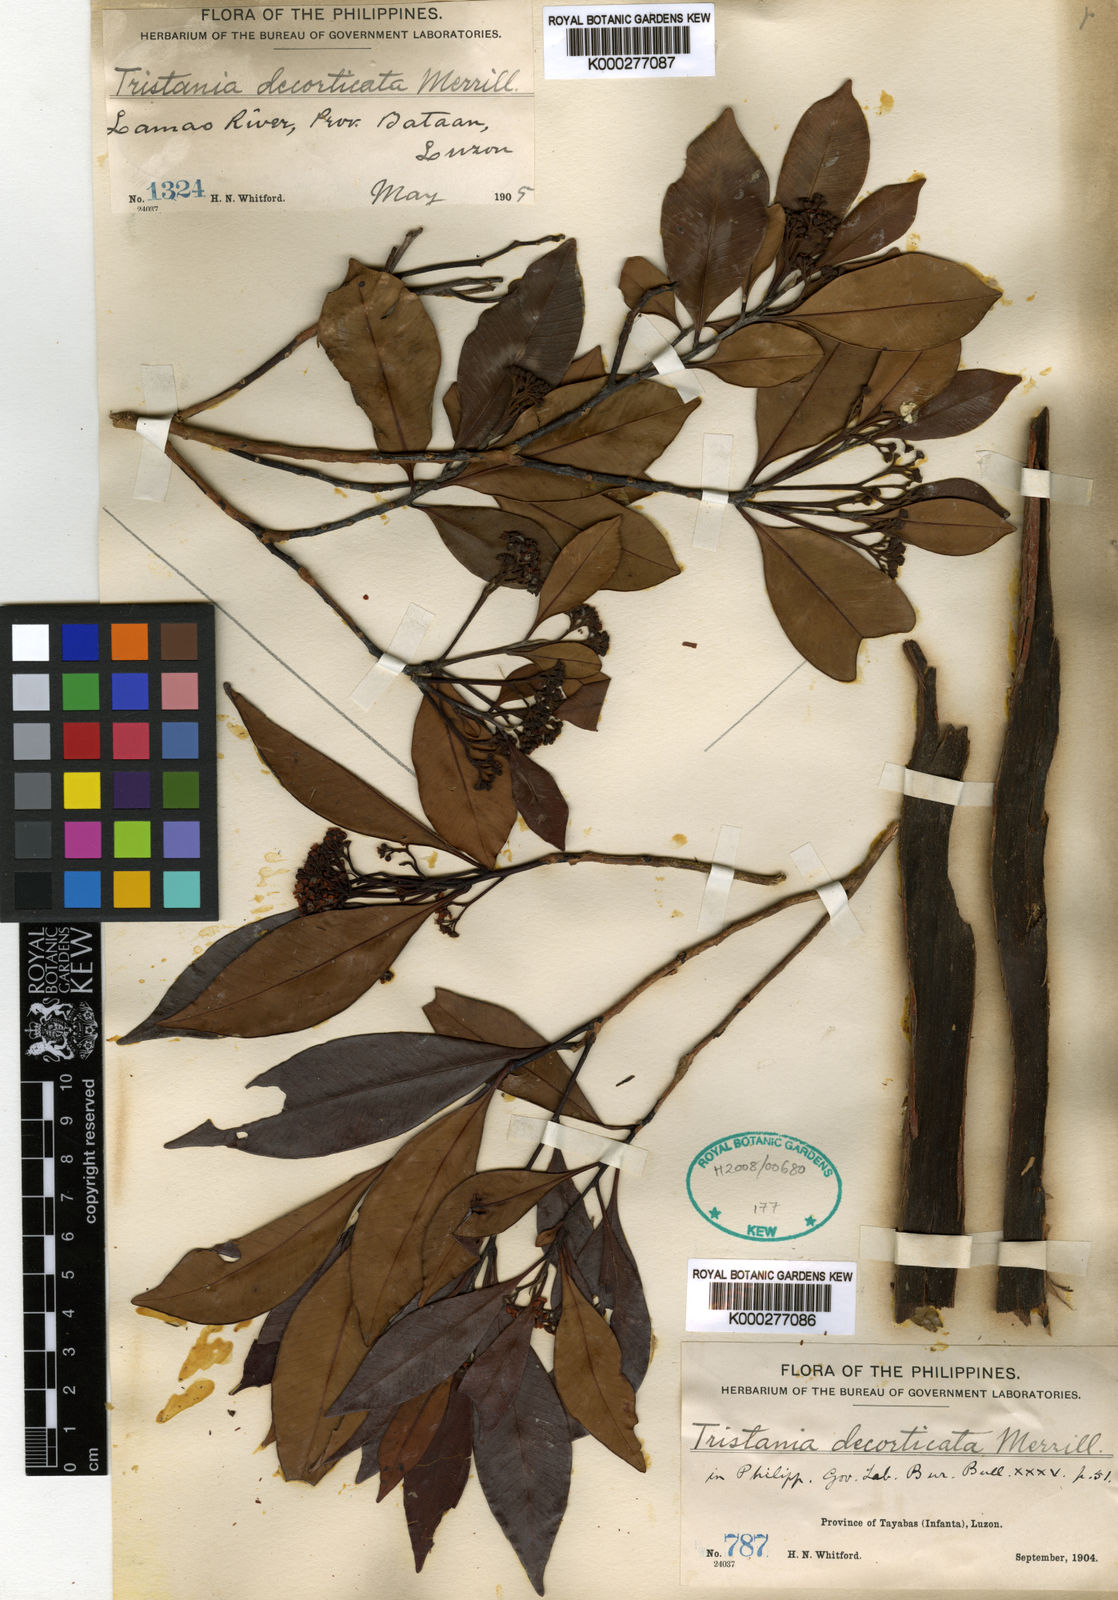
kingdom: Plantae
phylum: Tracheophyta
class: Magnoliopsida
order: Myrtales
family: Myrtaceae
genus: Tristaniopsis
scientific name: Tristaniopsis decorticata
